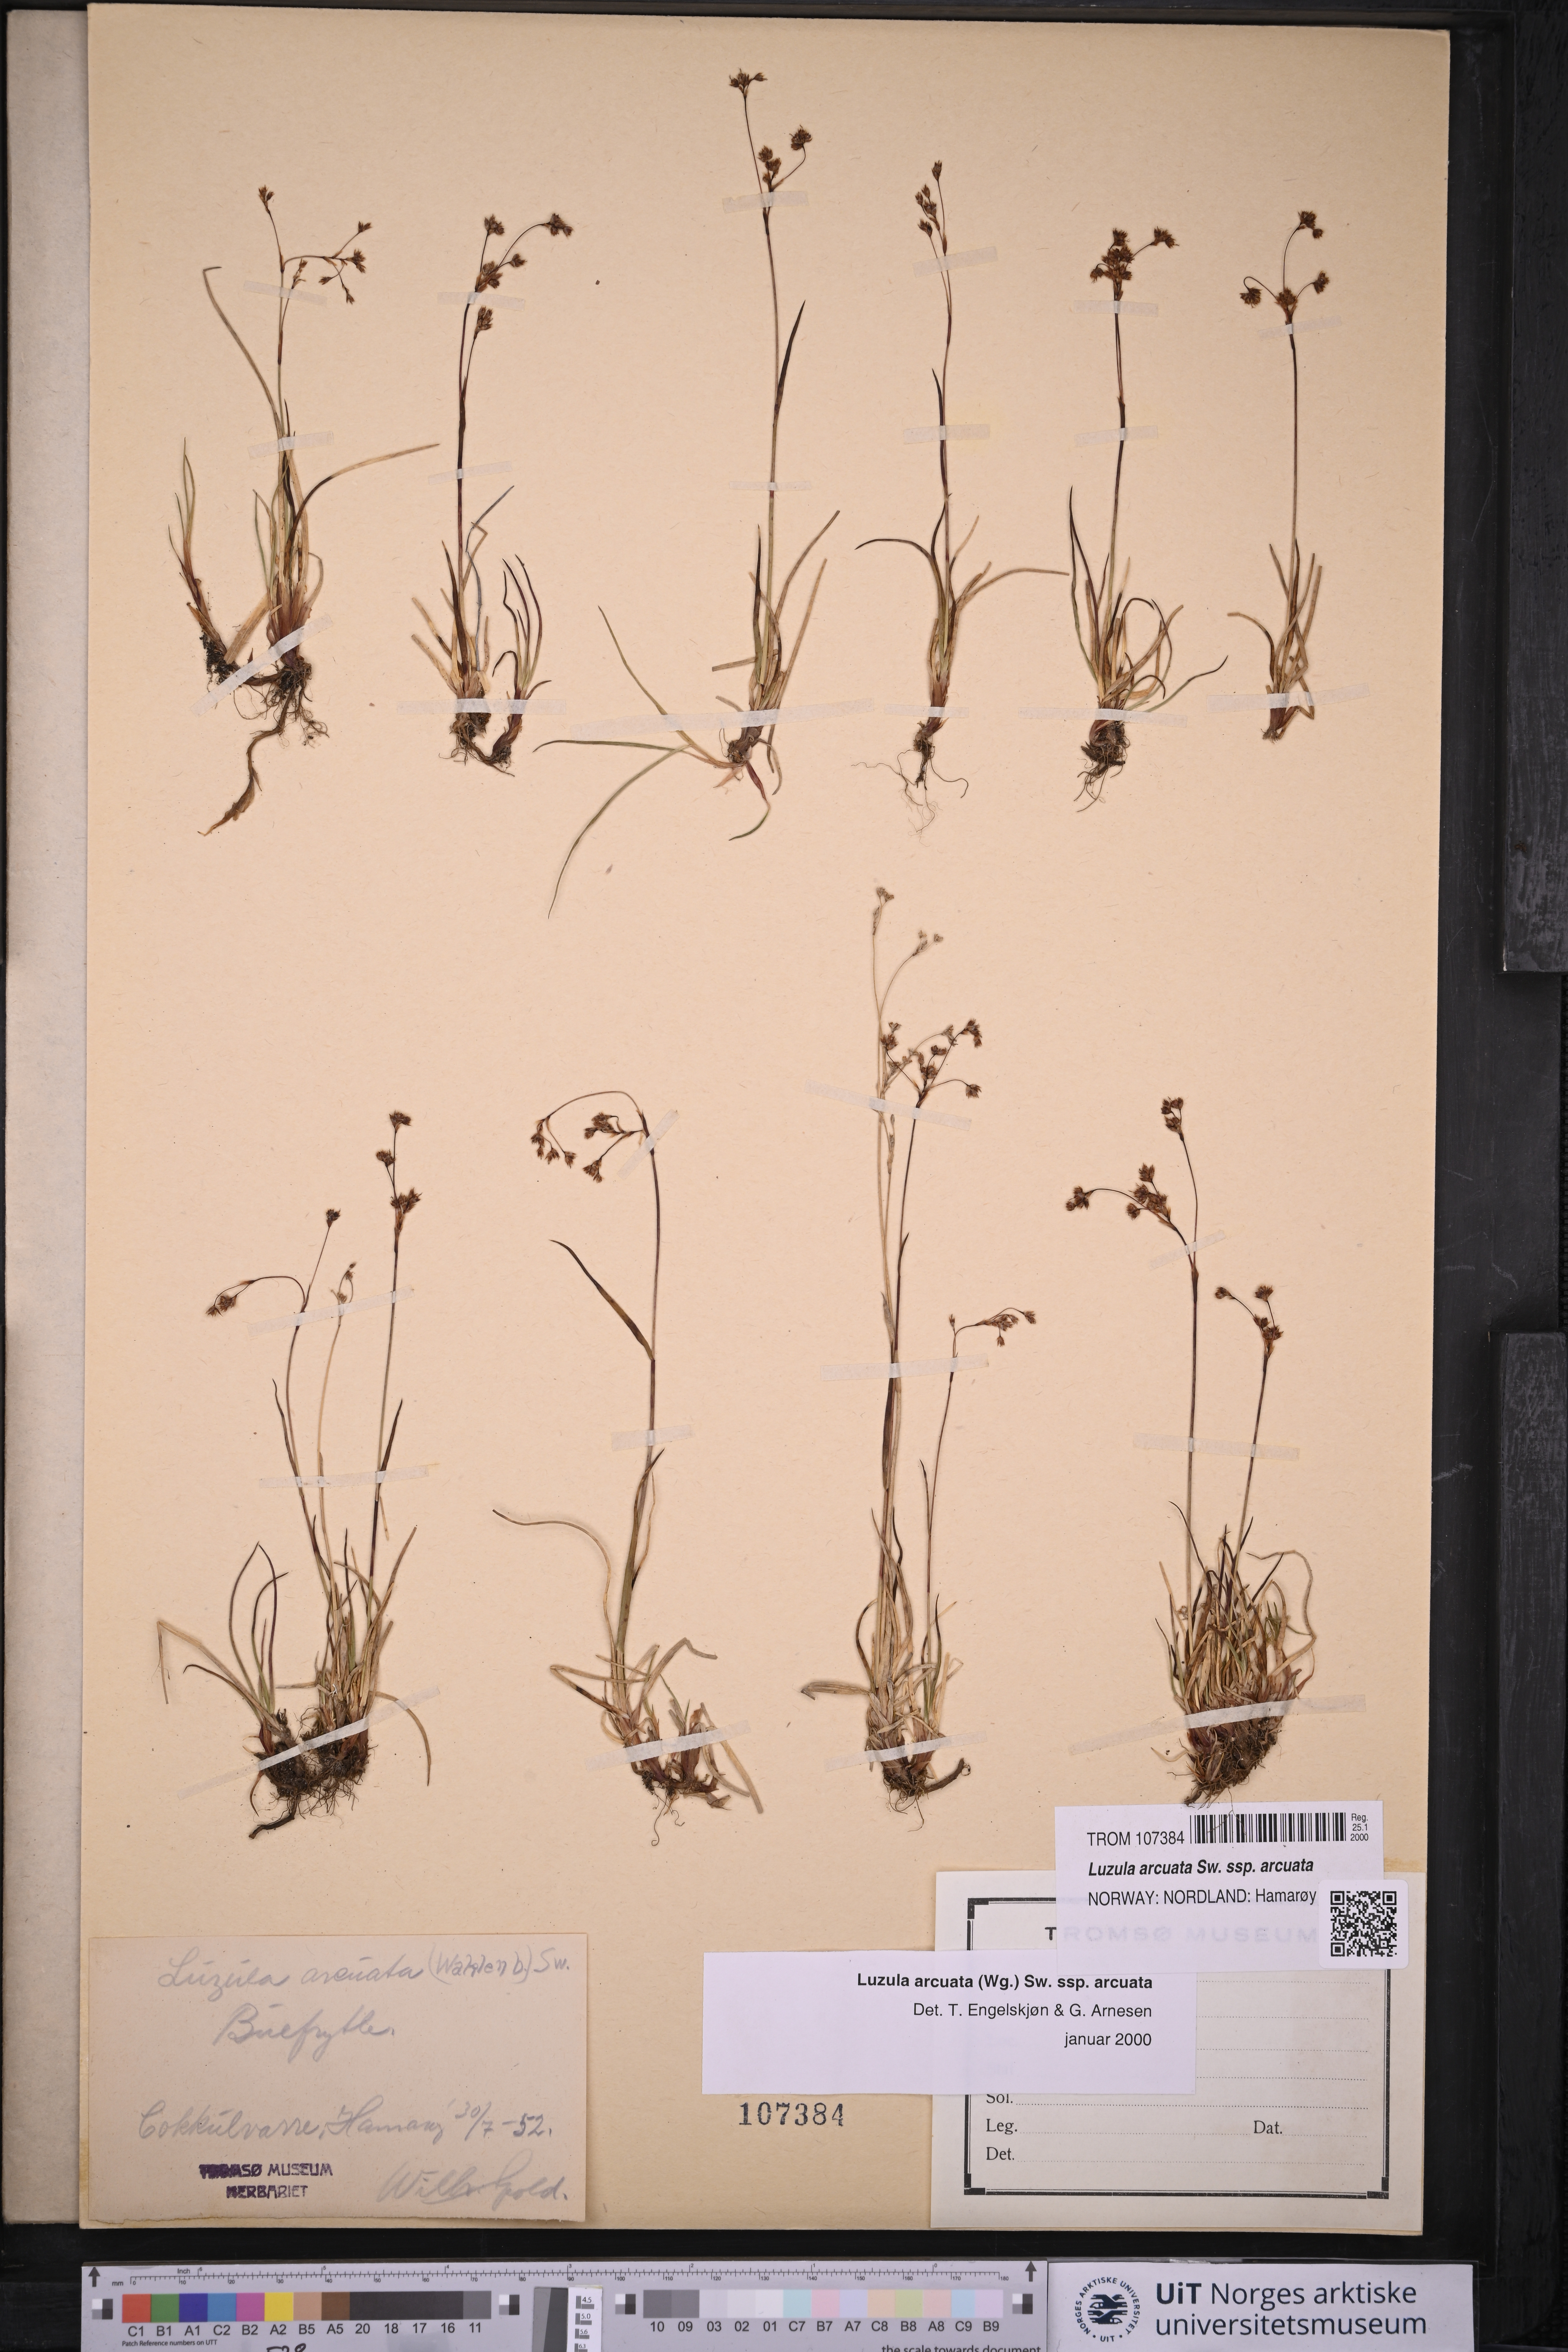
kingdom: Plantae
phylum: Tracheophyta
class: Liliopsida
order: Poales
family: Juncaceae
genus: Luzula
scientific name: Luzula arcuata
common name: Curved wood-rush
